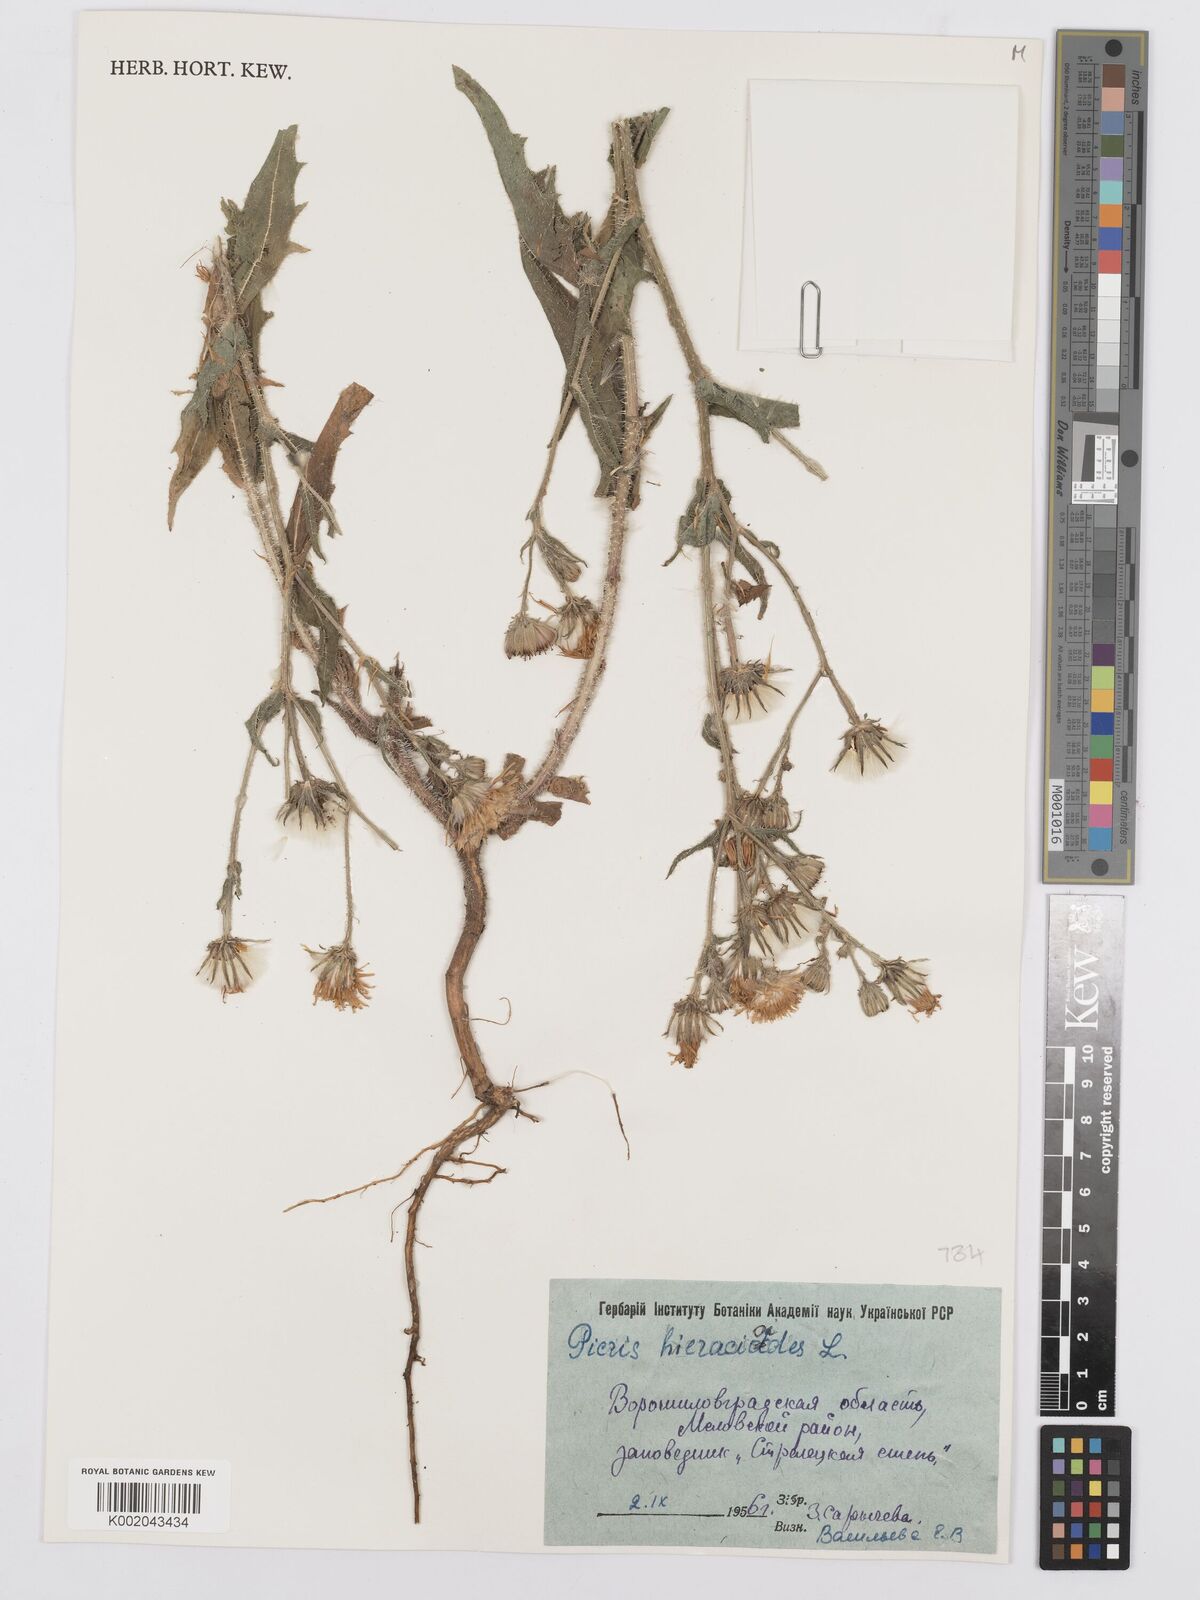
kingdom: Plantae
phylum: Tracheophyta
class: Magnoliopsida
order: Asterales
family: Asteraceae
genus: Picris
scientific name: Picris hieracioides
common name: Hawkweed oxtongue
